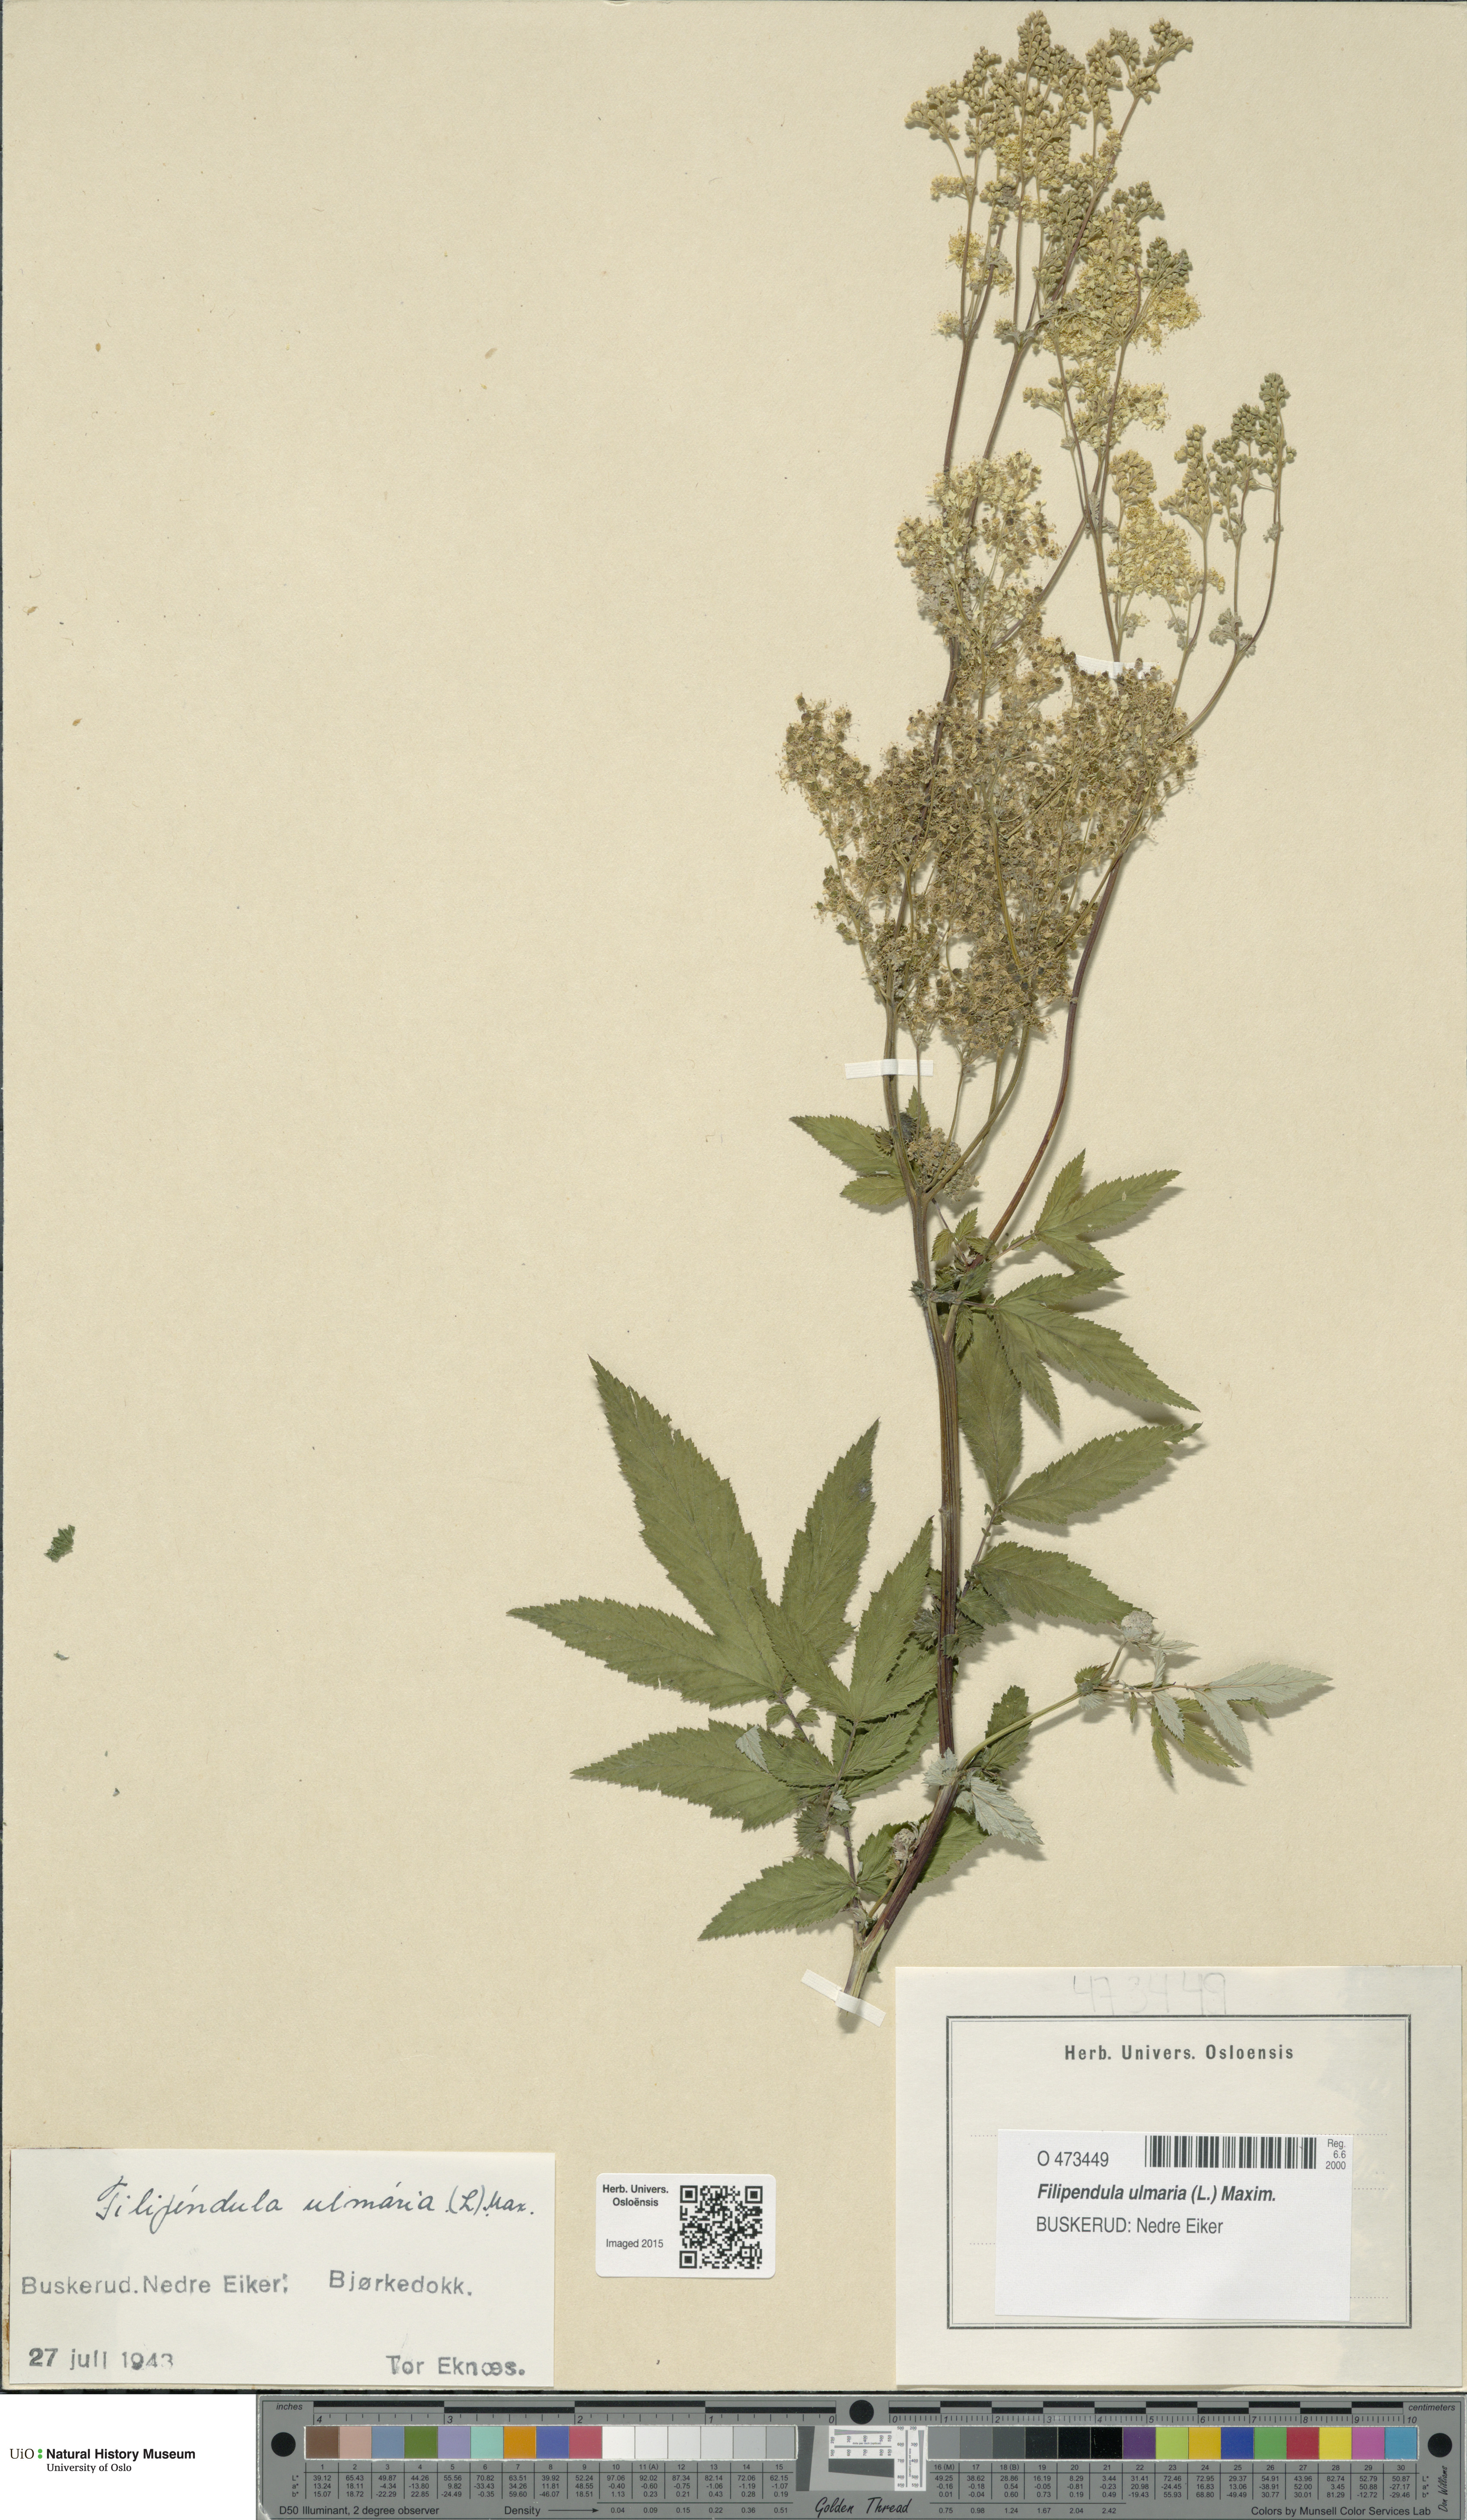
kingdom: Plantae
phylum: Tracheophyta
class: Magnoliopsida
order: Rosales
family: Rosaceae
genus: Filipendula
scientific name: Filipendula ulmaria
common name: Meadowsweet
